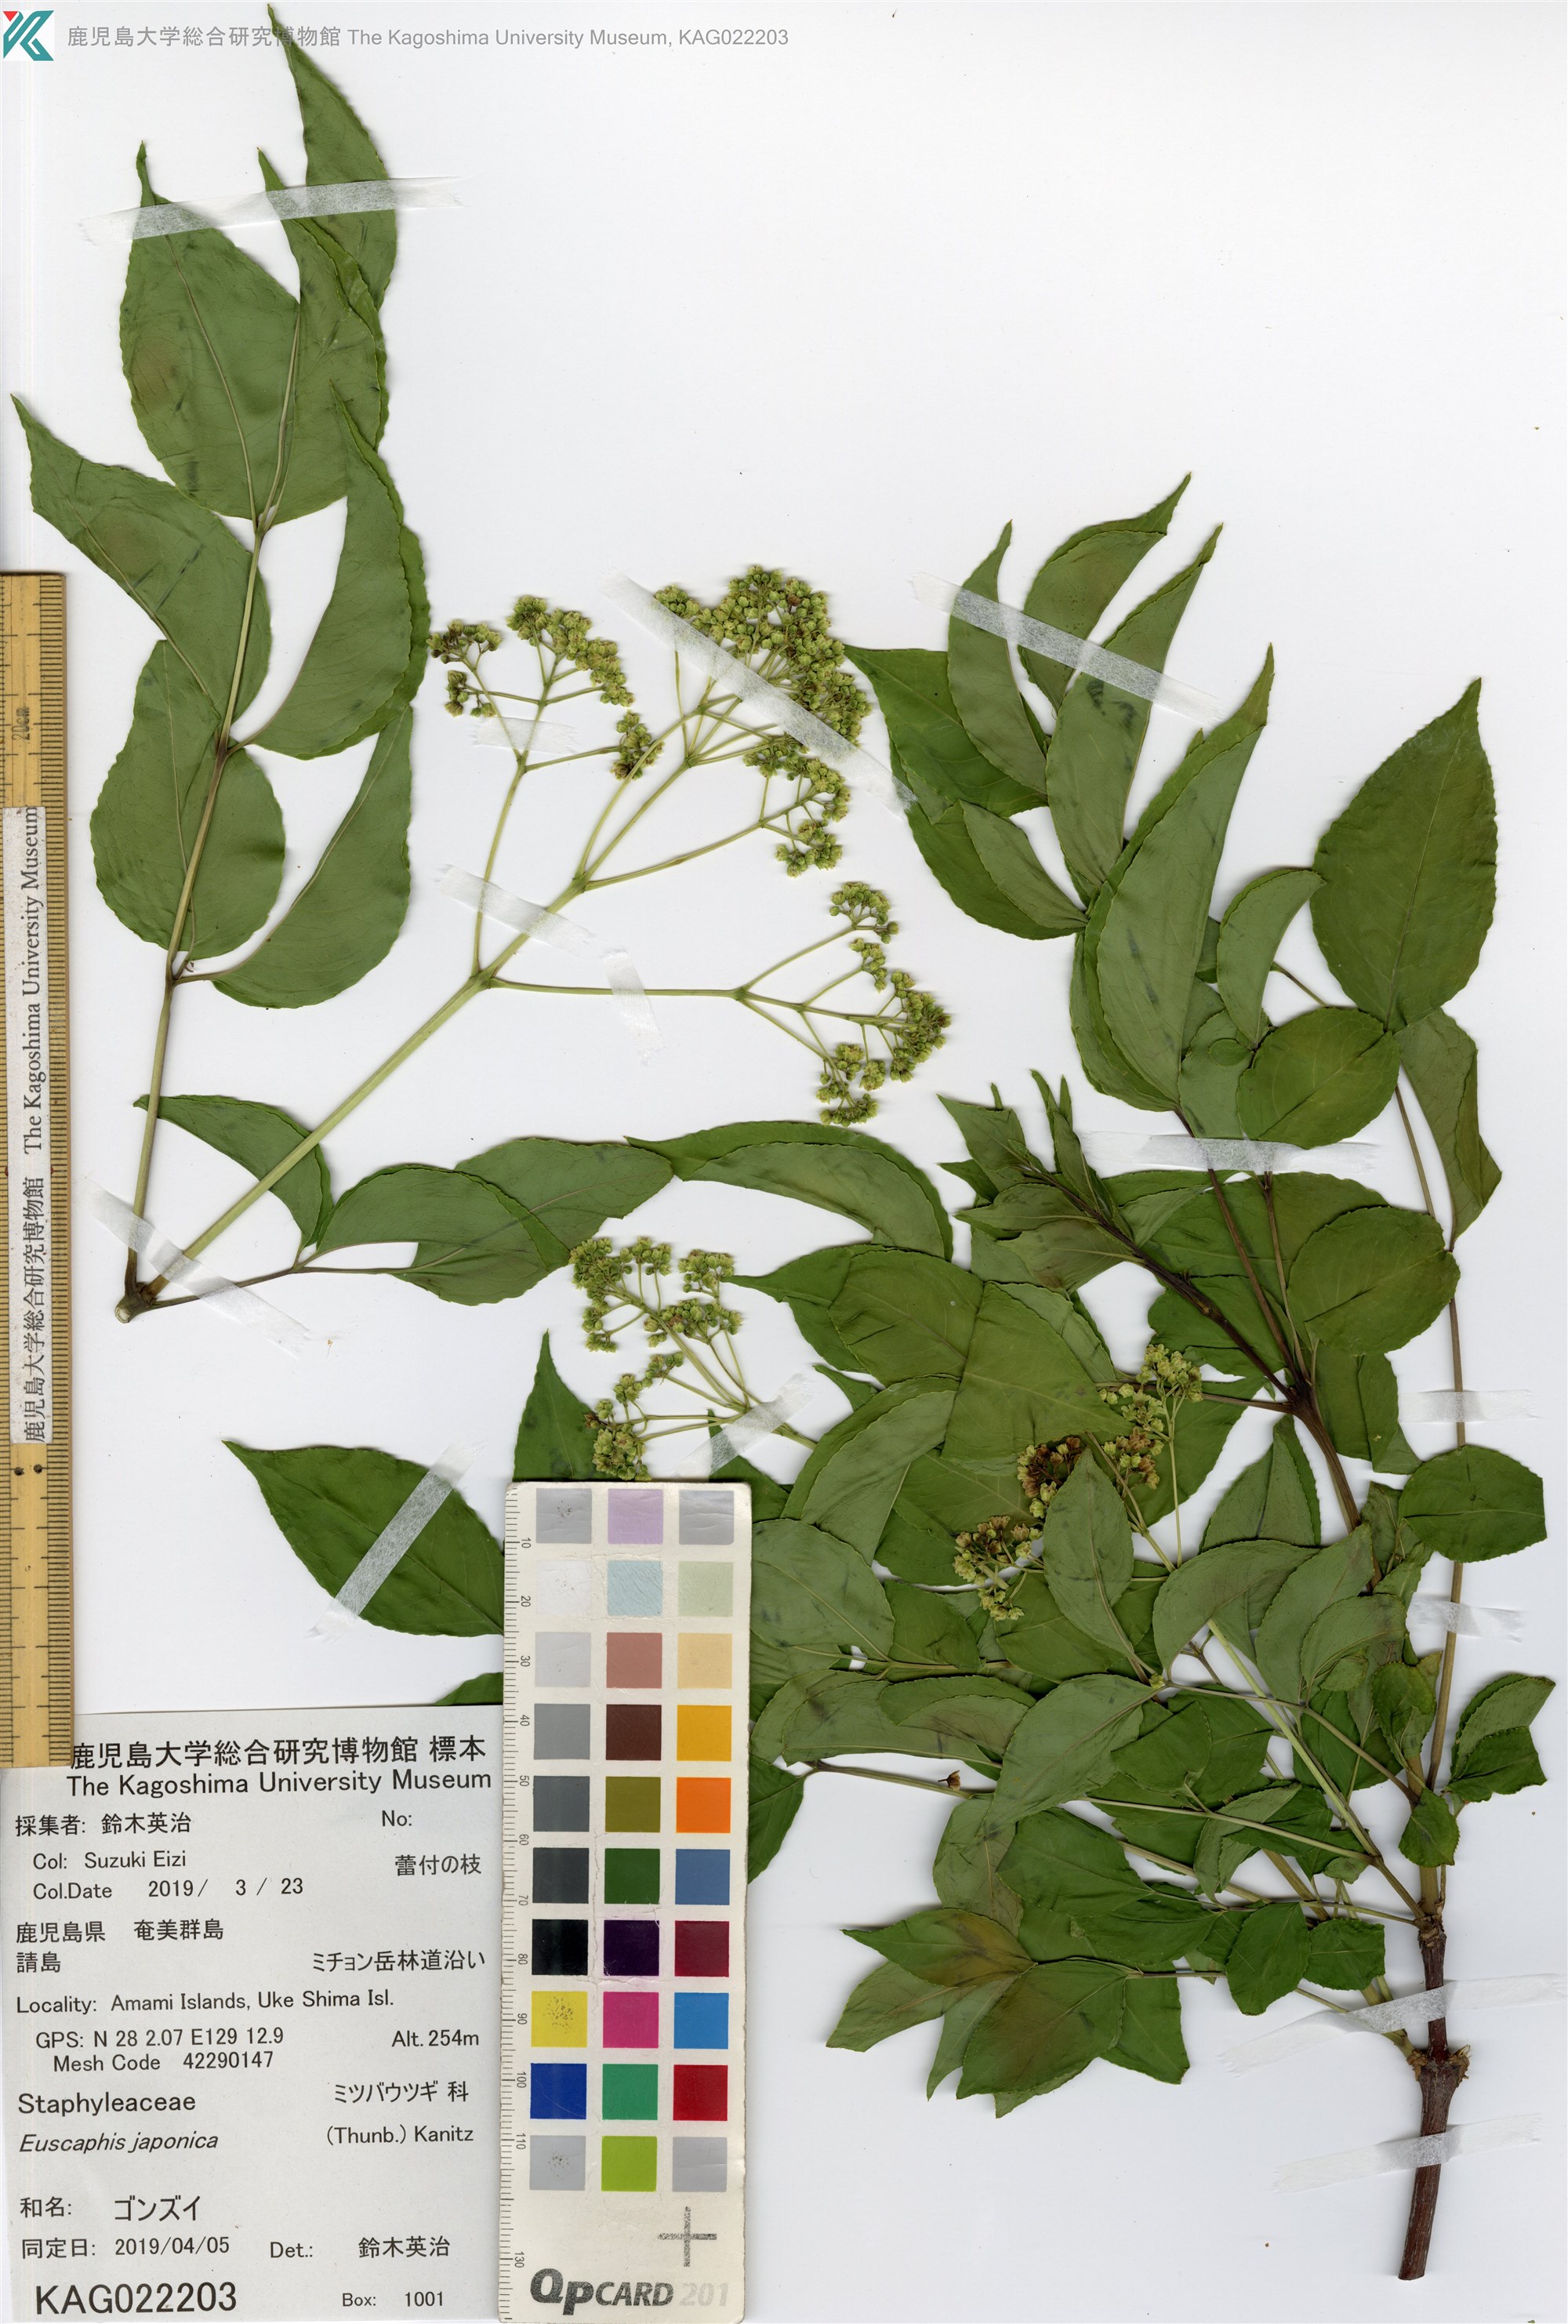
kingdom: Plantae
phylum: Tracheophyta
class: Magnoliopsida
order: Crossosomatales
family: Staphyleaceae
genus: Staphylea
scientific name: Staphylea japonica
